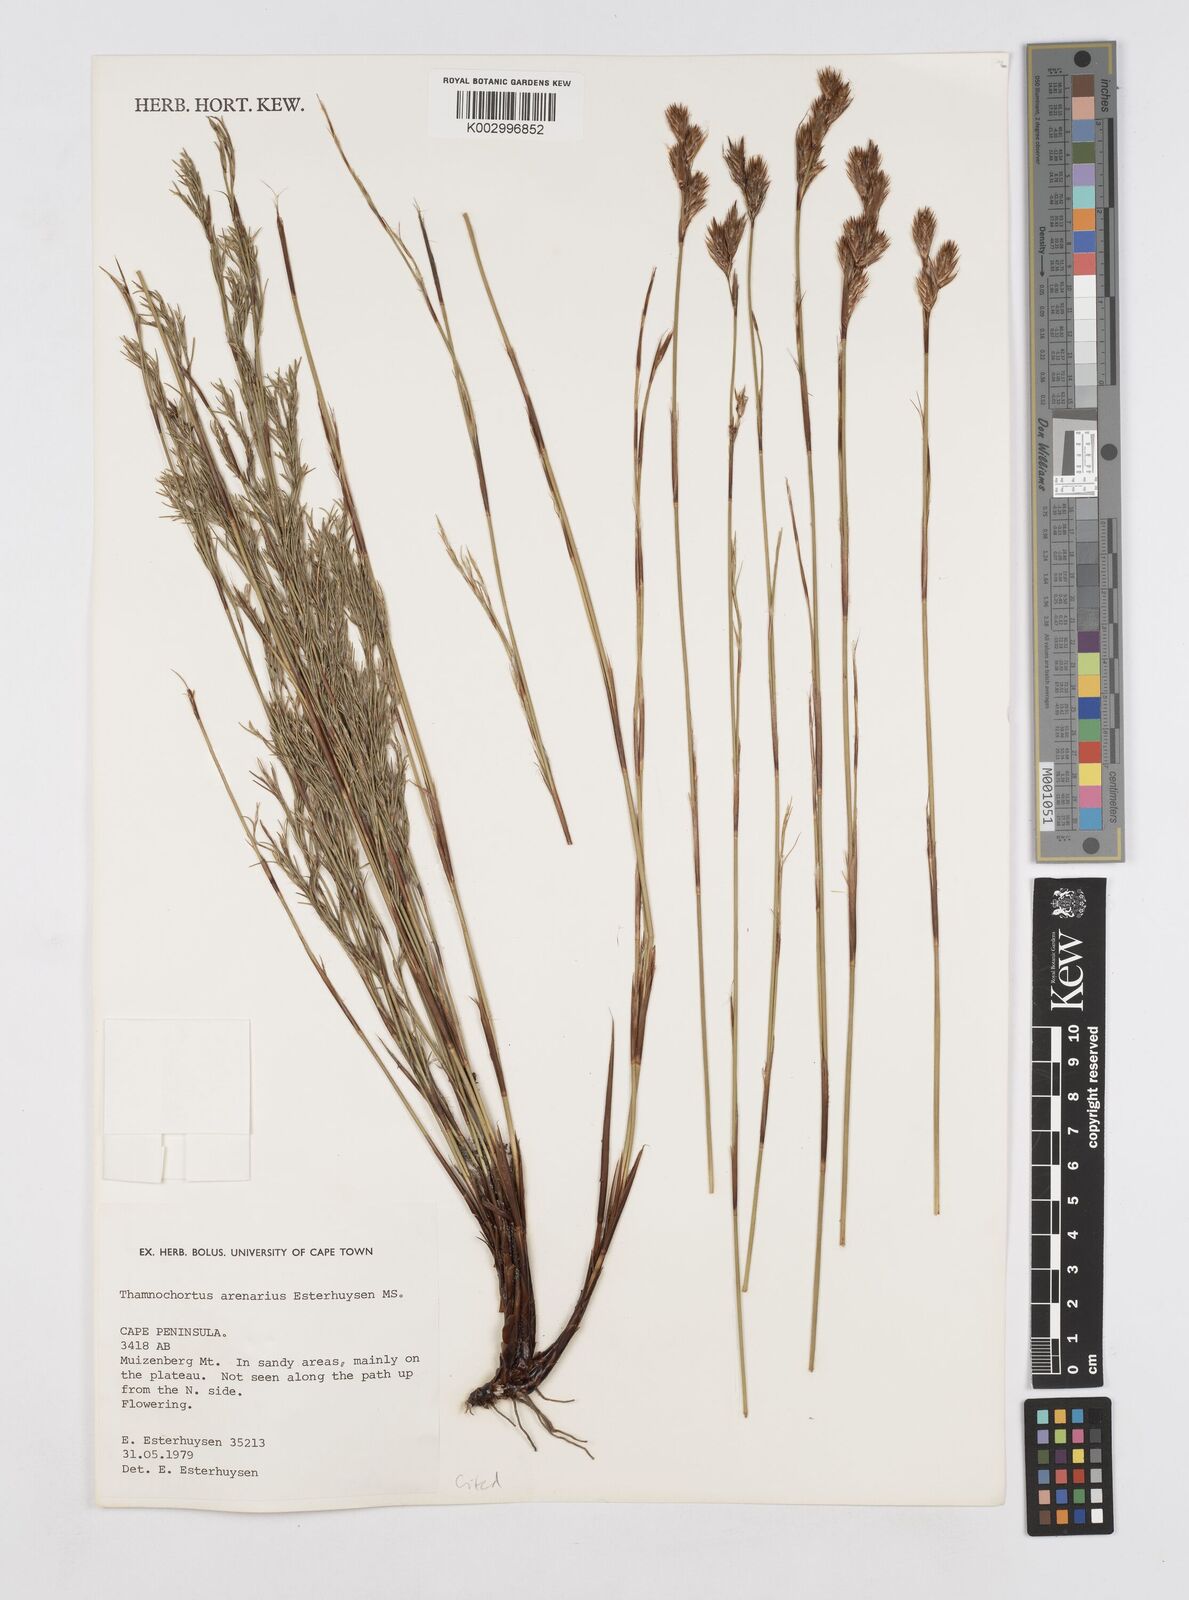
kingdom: Plantae
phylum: Tracheophyta
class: Liliopsida
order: Poales
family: Restionaceae
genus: Thamnochortus
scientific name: Thamnochortus arenarius
